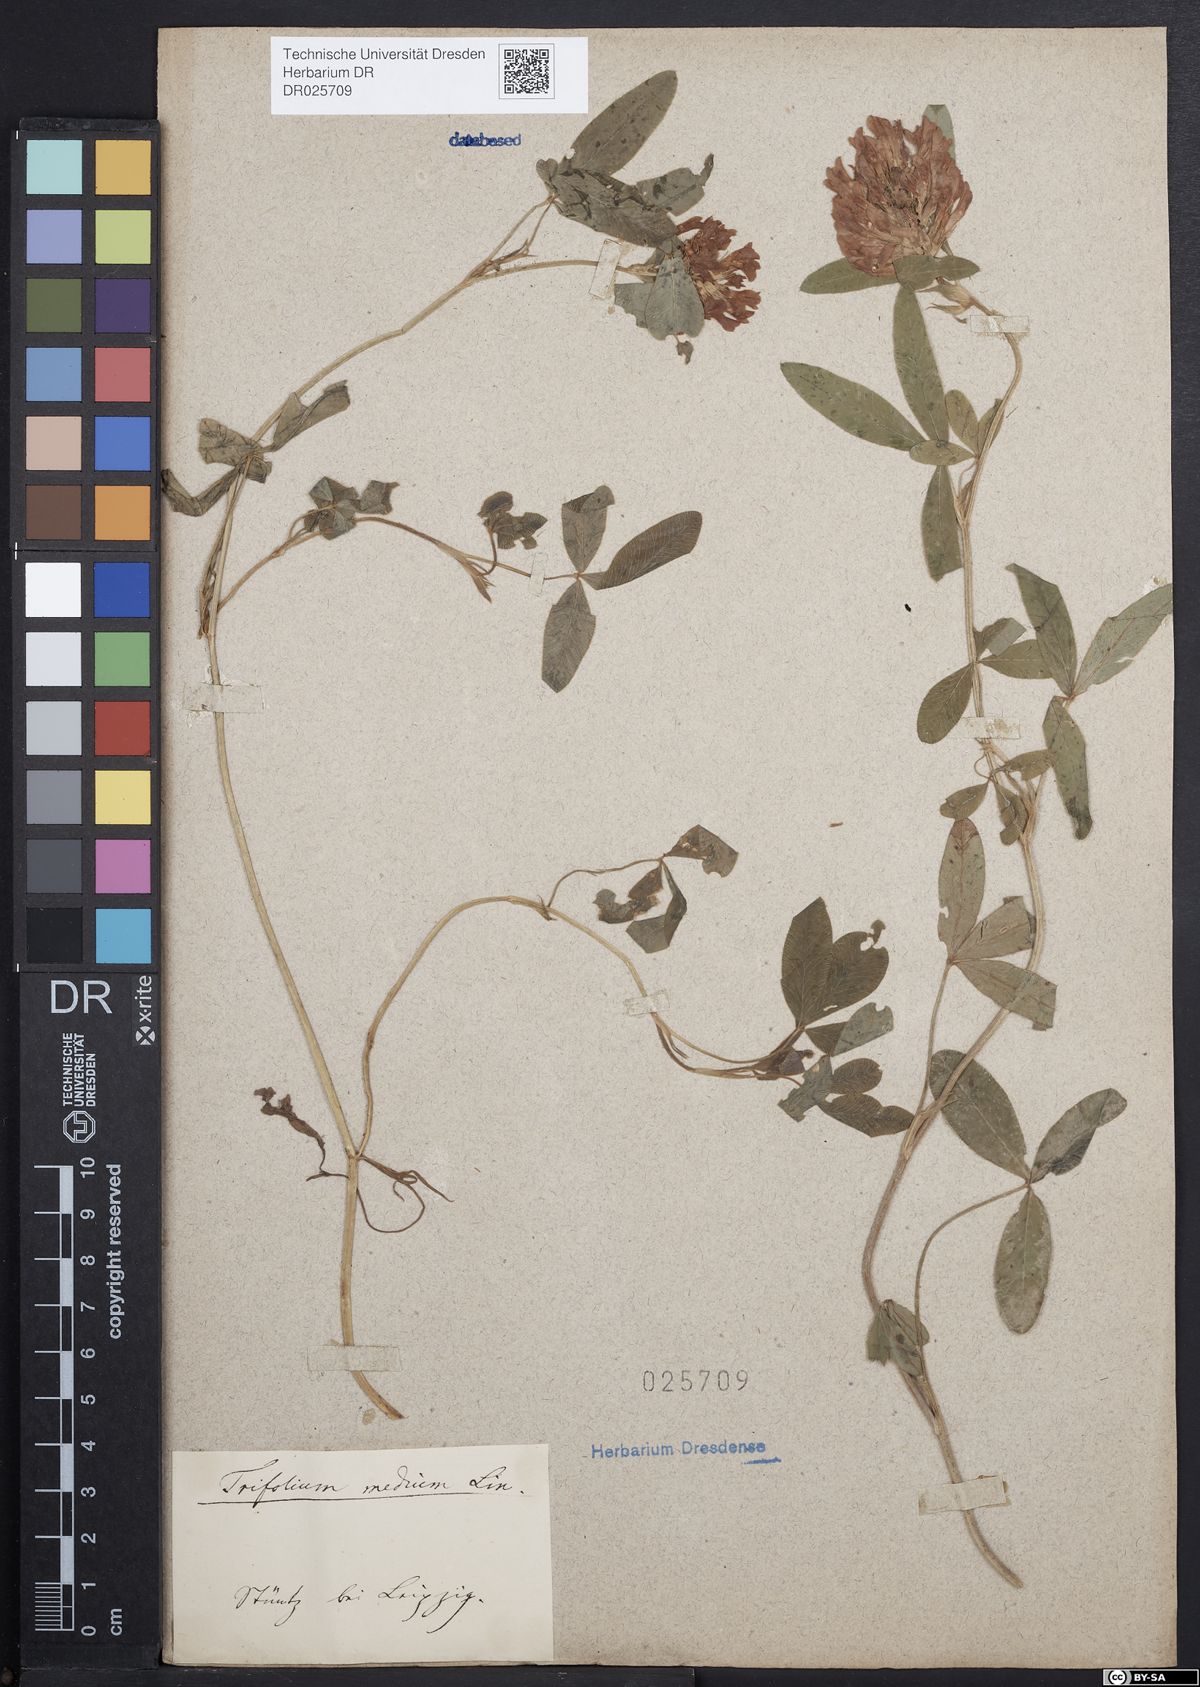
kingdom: Plantae
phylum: Tracheophyta
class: Magnoliopsida
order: Fabales
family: Fabaceae
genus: Trifolium
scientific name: Trifolium medium
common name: Zigzag clover
